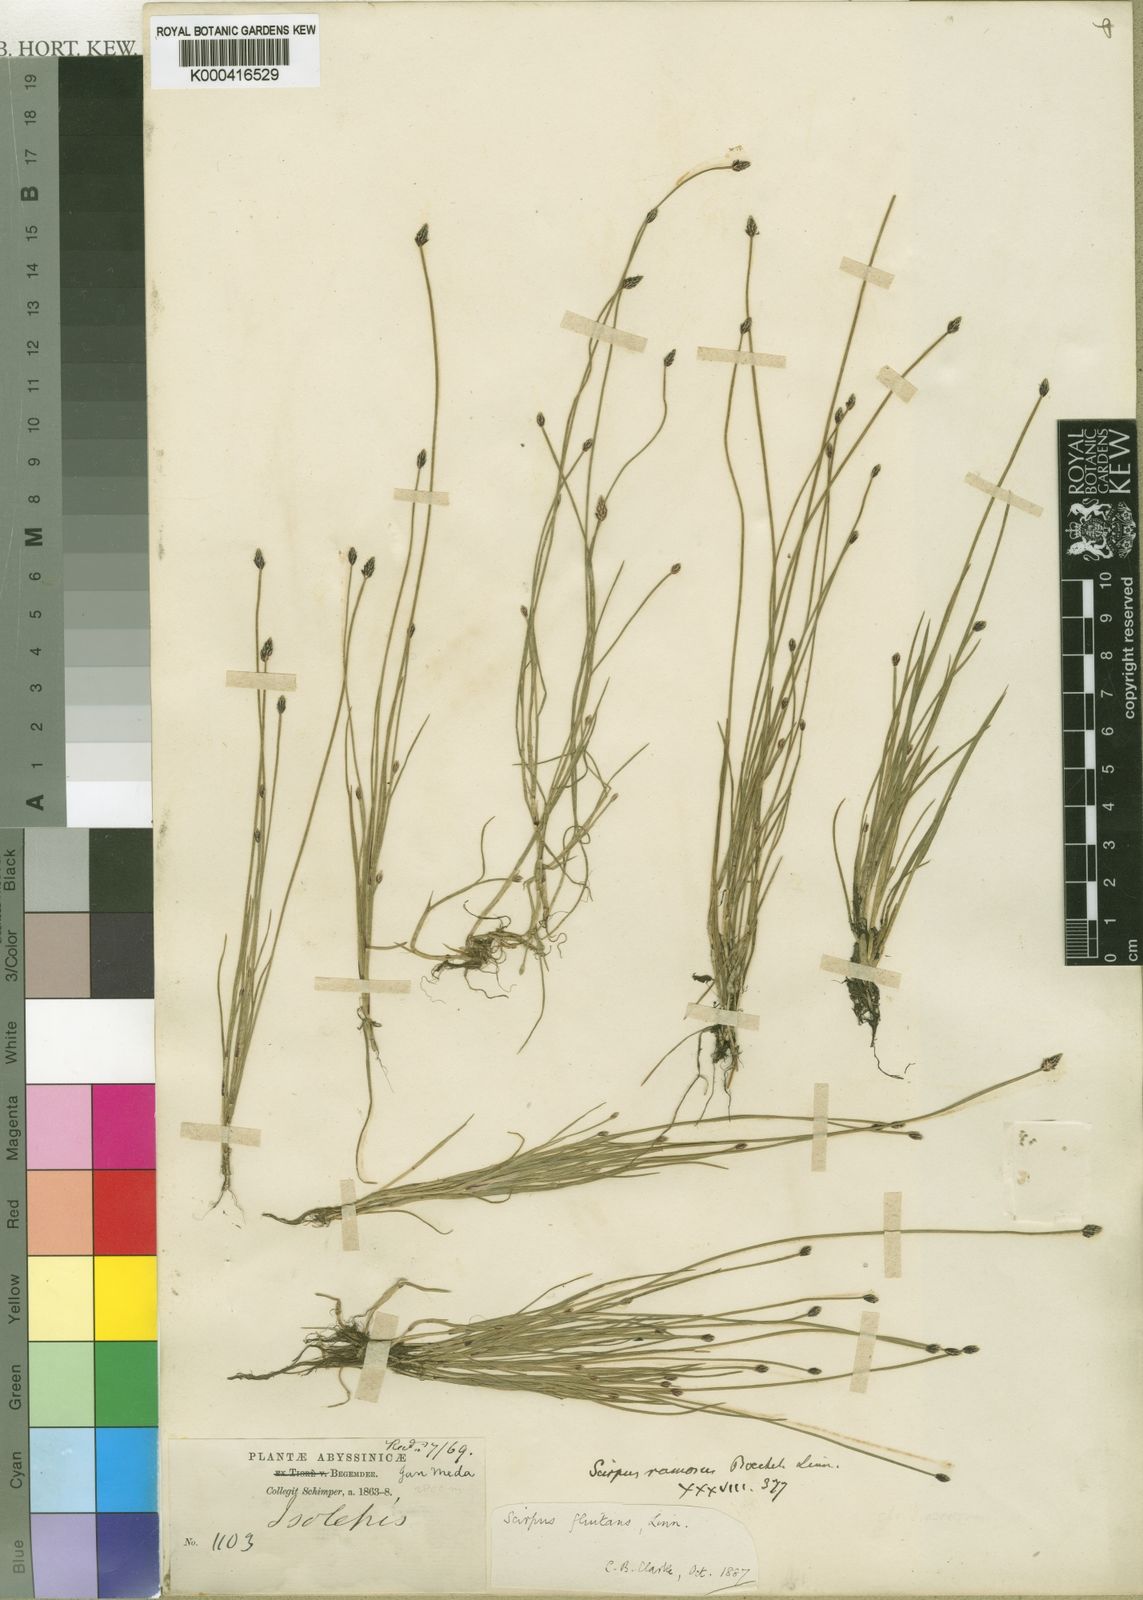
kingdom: Plantae
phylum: Tracheophyta
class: Liliopsida
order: Poales
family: Cyperaceae
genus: Isolepis
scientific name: Isolepis fluitans
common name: Floating club-rush
